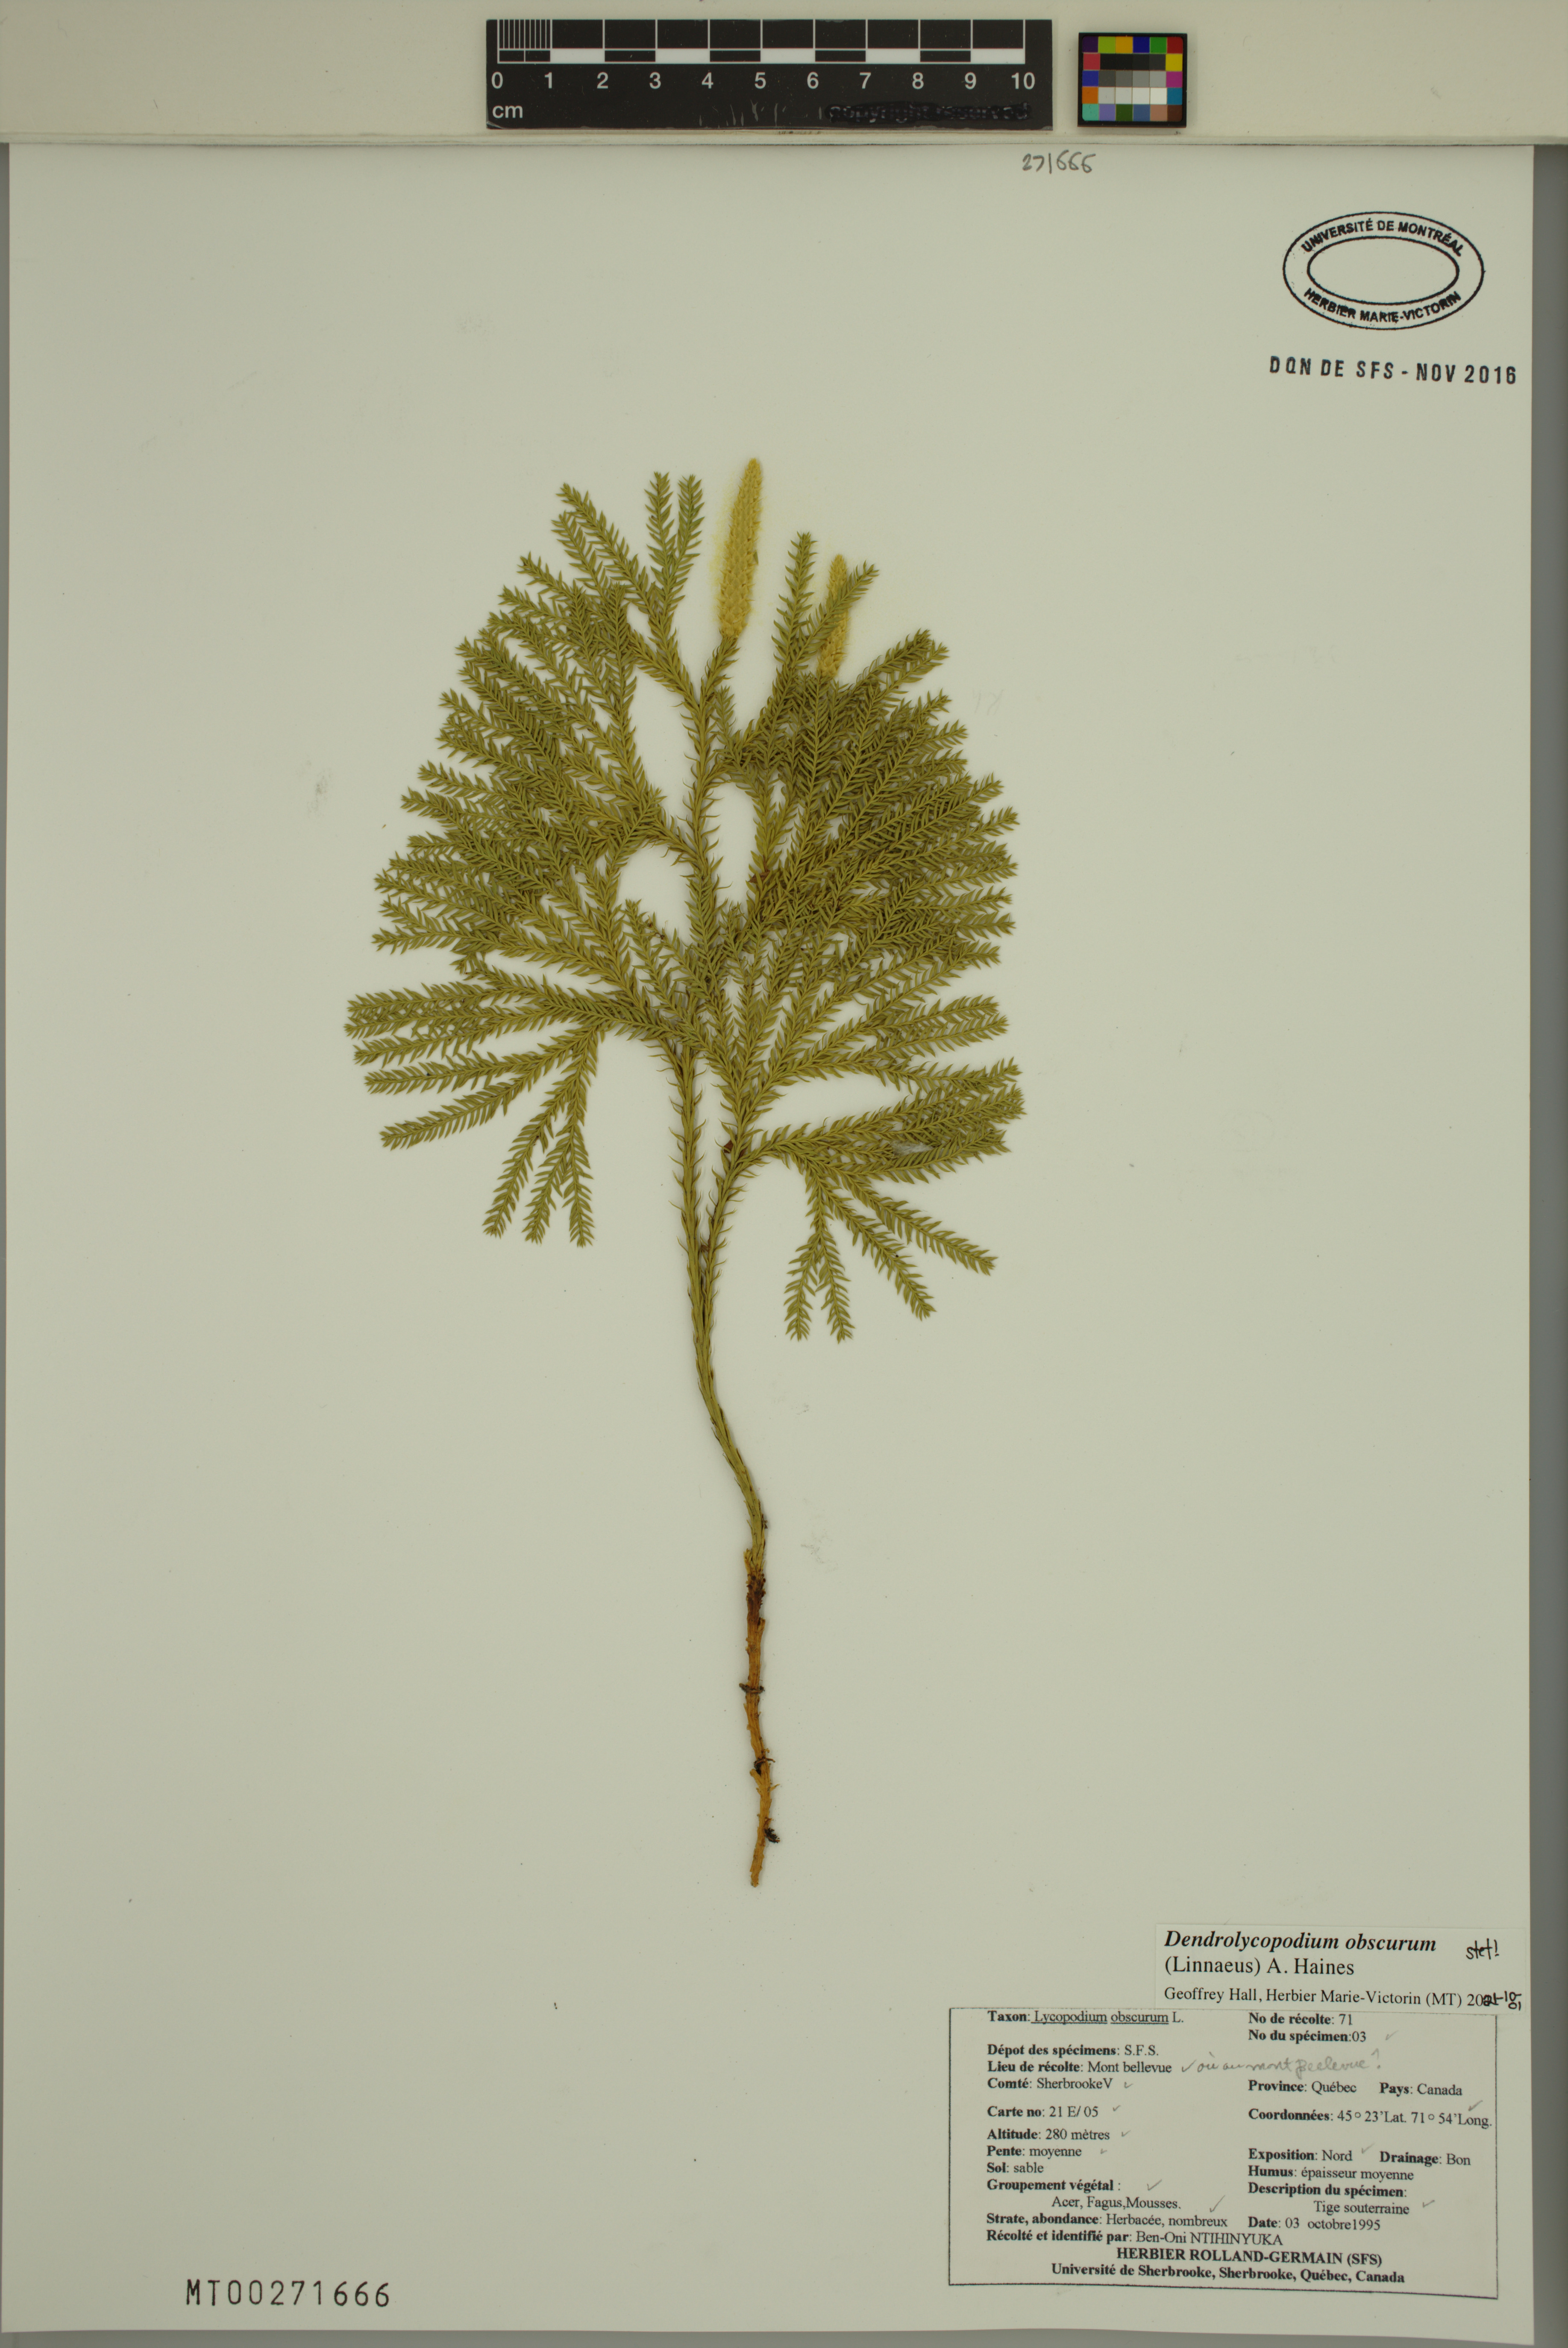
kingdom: Plantae
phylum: Tracheophyta
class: Lycopodiopsida
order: Lycopodiales
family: Lycopodiaceae
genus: Dendrolycopodium
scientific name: Dendrolycopodium obscurum
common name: Common ground-pine
